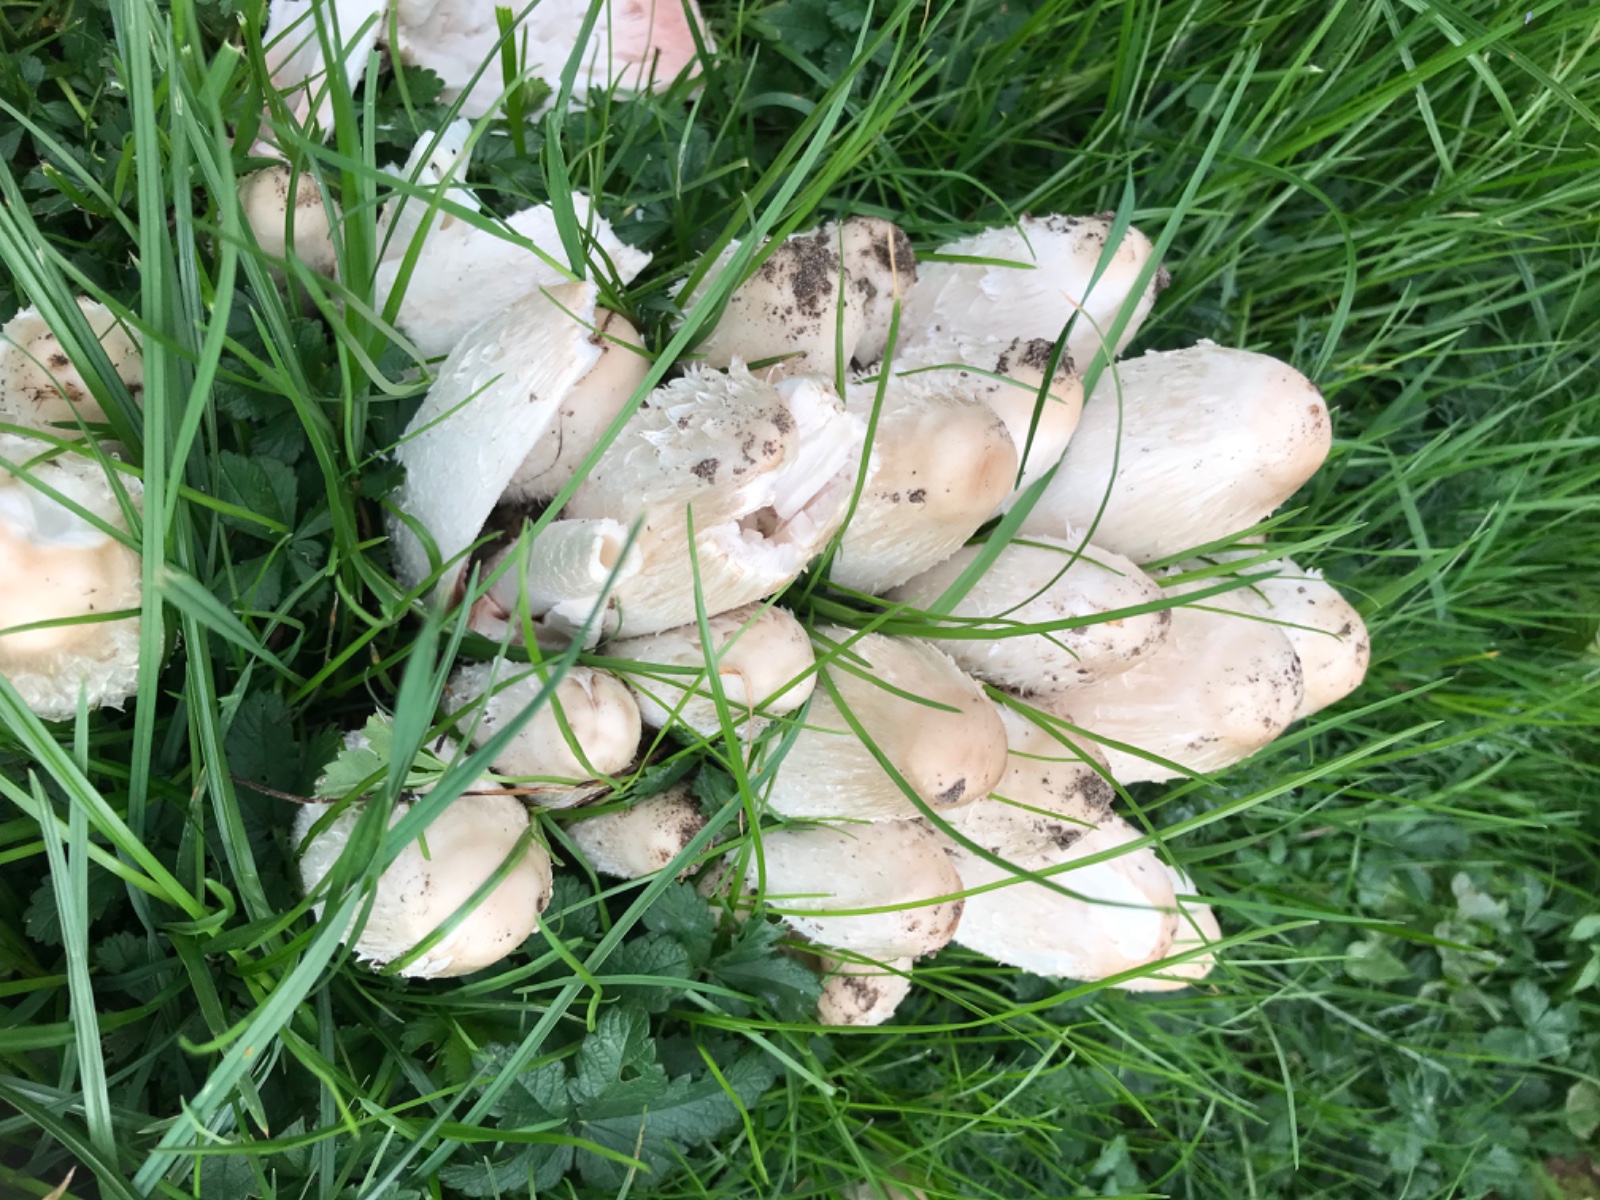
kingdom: Fungi
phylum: Basidiomycota
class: Agaricomycetes
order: Agaricales
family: Agaricaceae
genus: Coprinus
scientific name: Coprinus comatus
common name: stor parykhat
